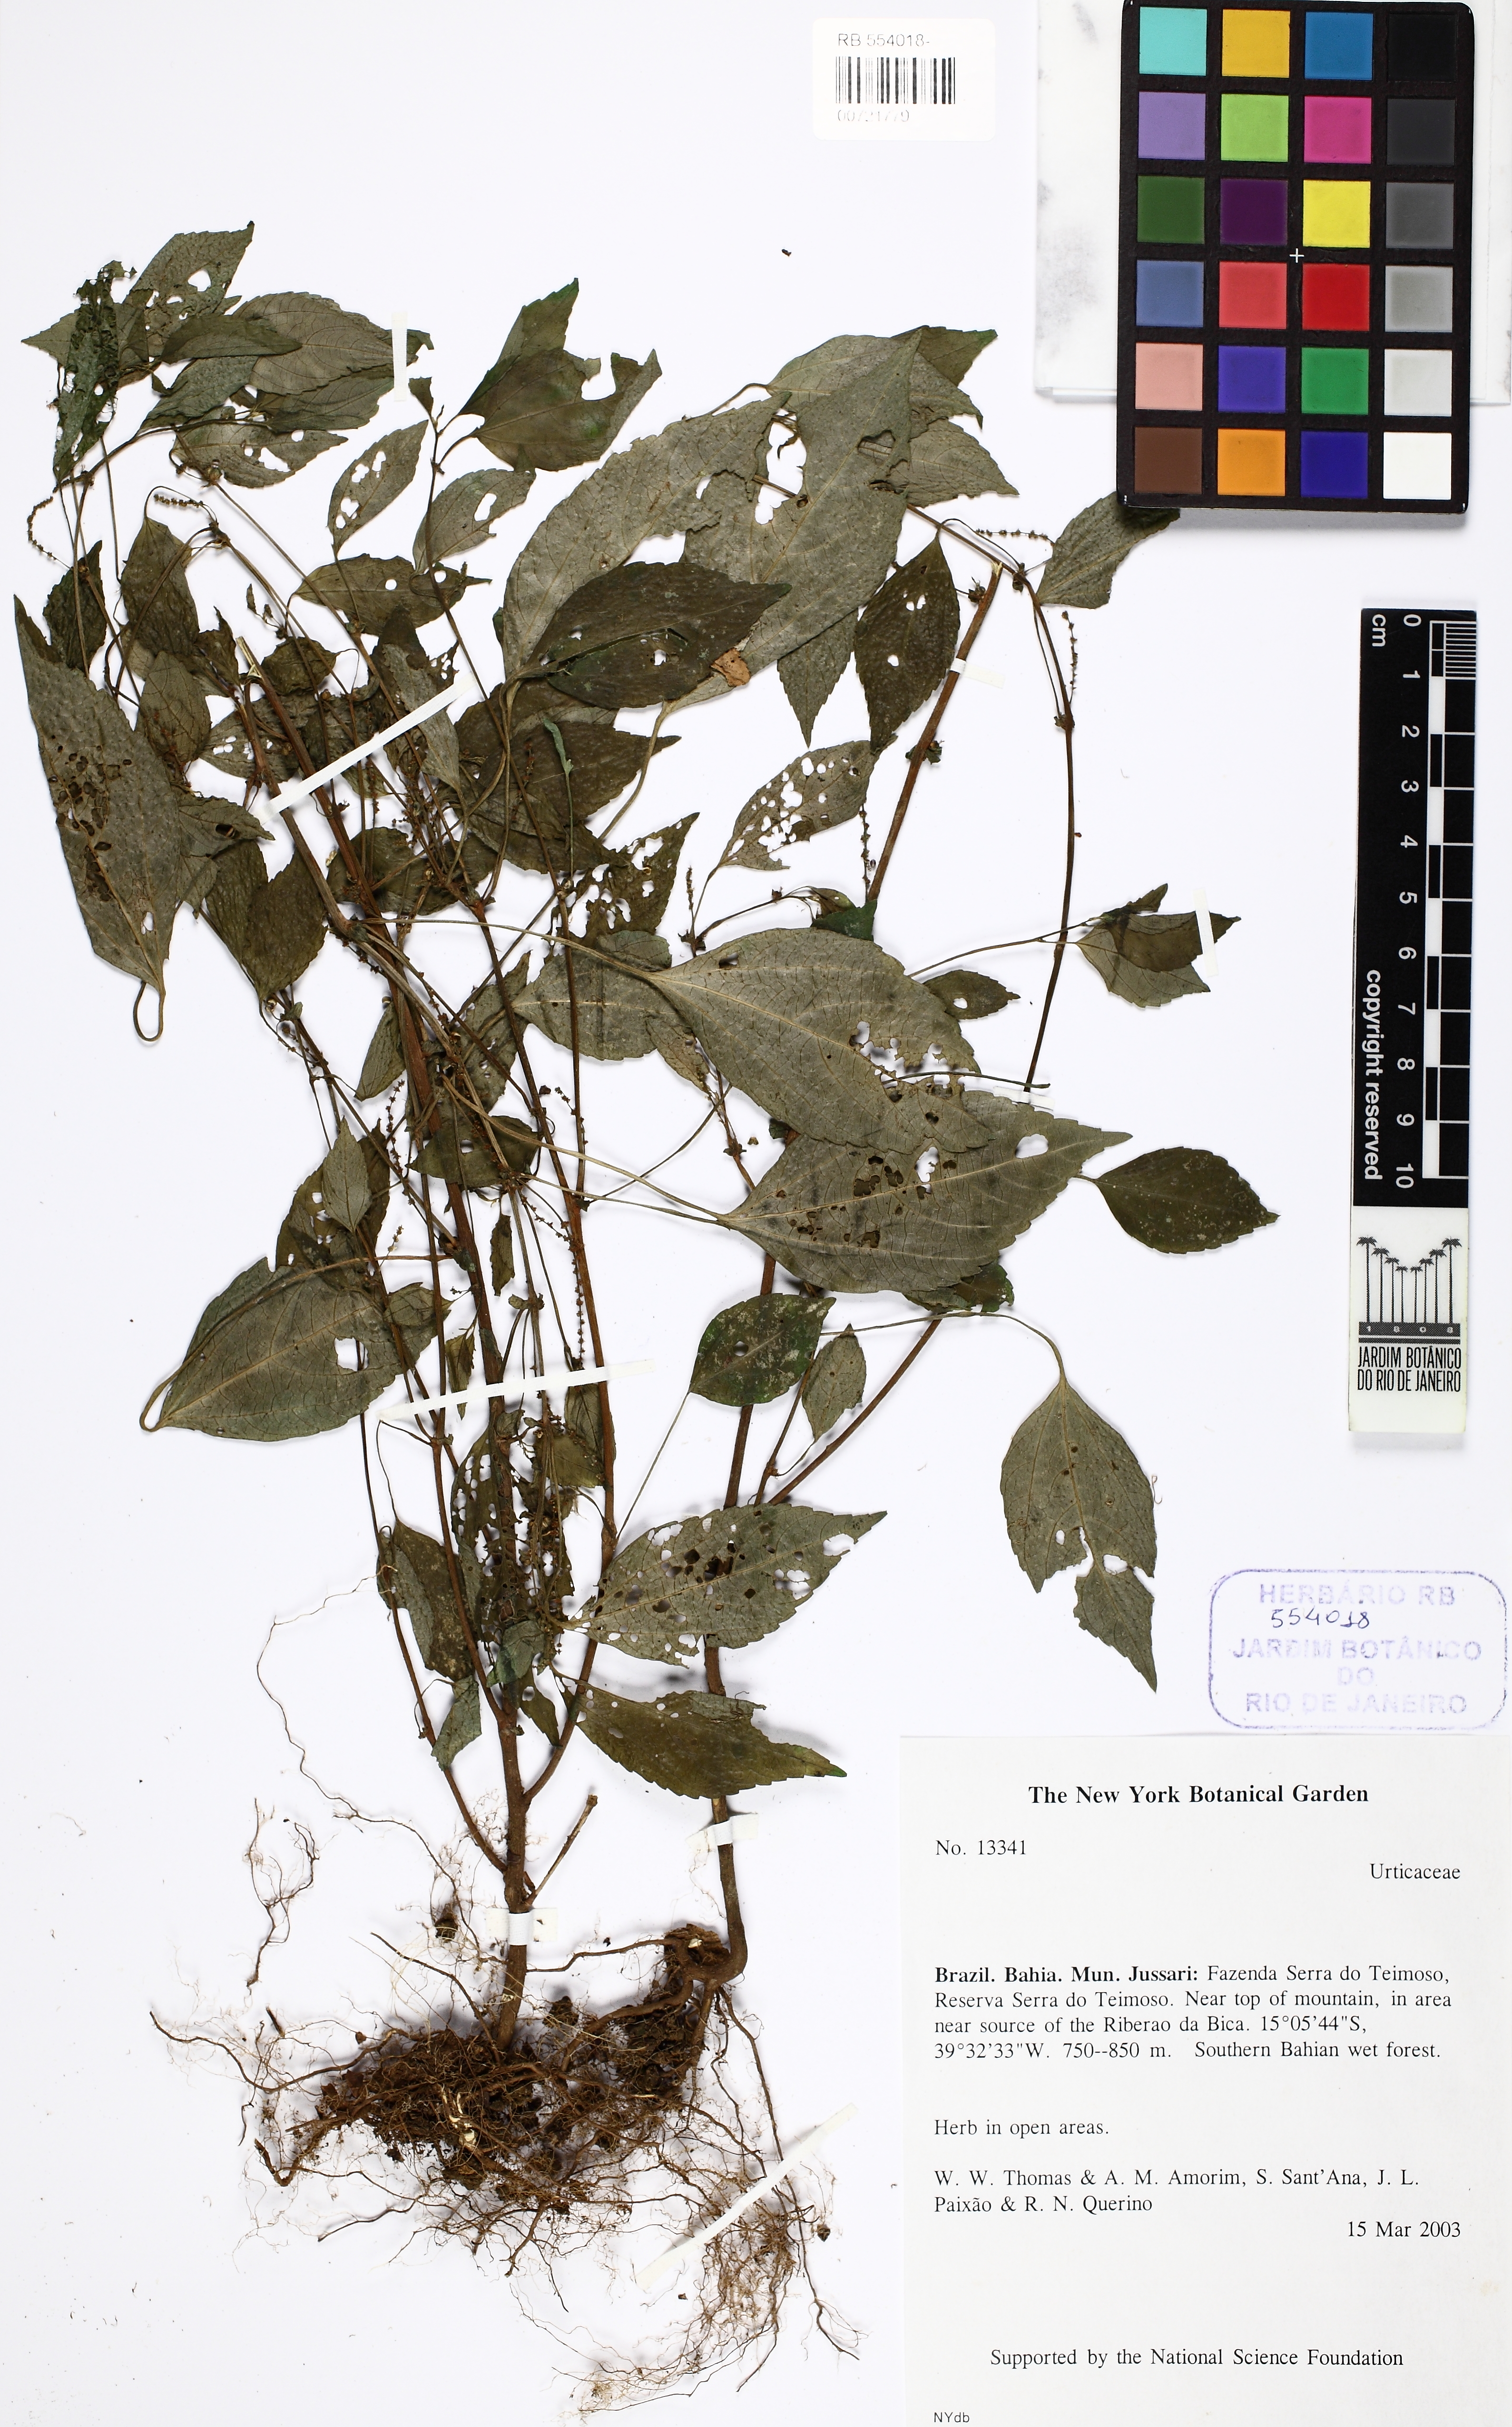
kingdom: Plantae
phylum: Tracheophyta
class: Magnoliopsida
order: Rosales
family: Urticaceae
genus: Boehmeria
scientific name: Boehmeria cylindrica
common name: Bog-hemp
